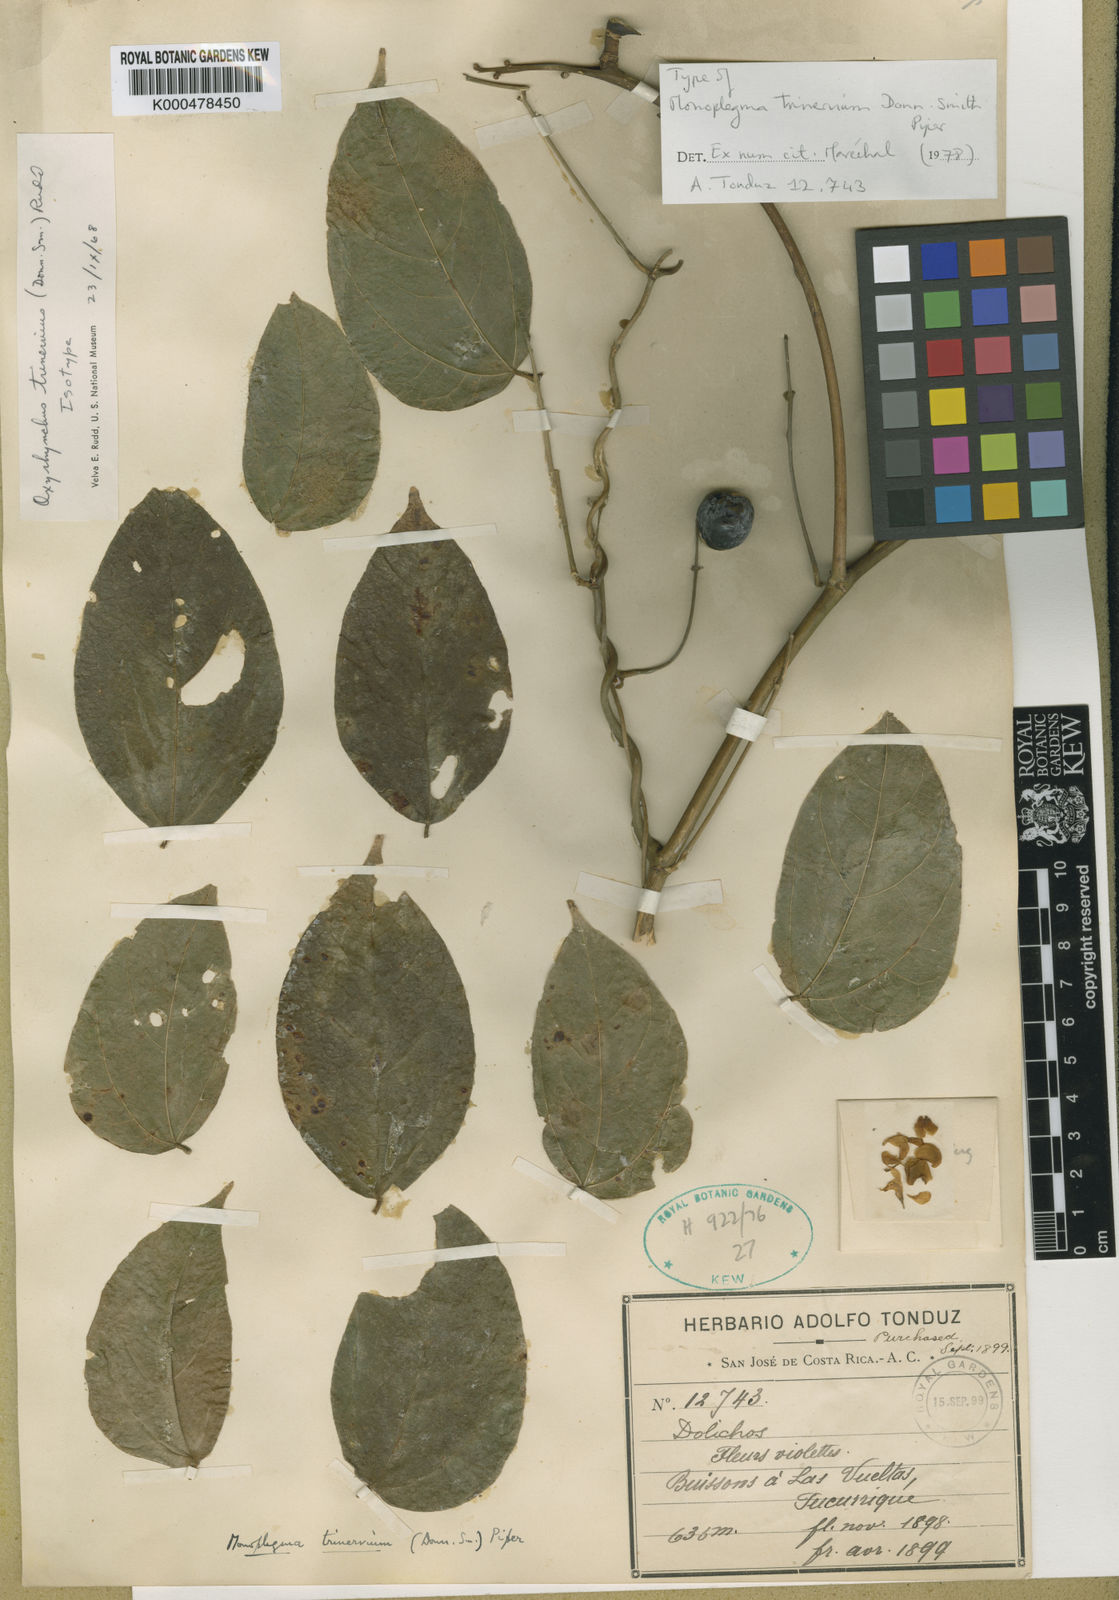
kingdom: Plantae
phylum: Tracheophyta
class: Magnoliopsida
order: Fabales
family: Fabaceae
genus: Oxyrhynchus
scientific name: Oxyrhynchus trinervius
